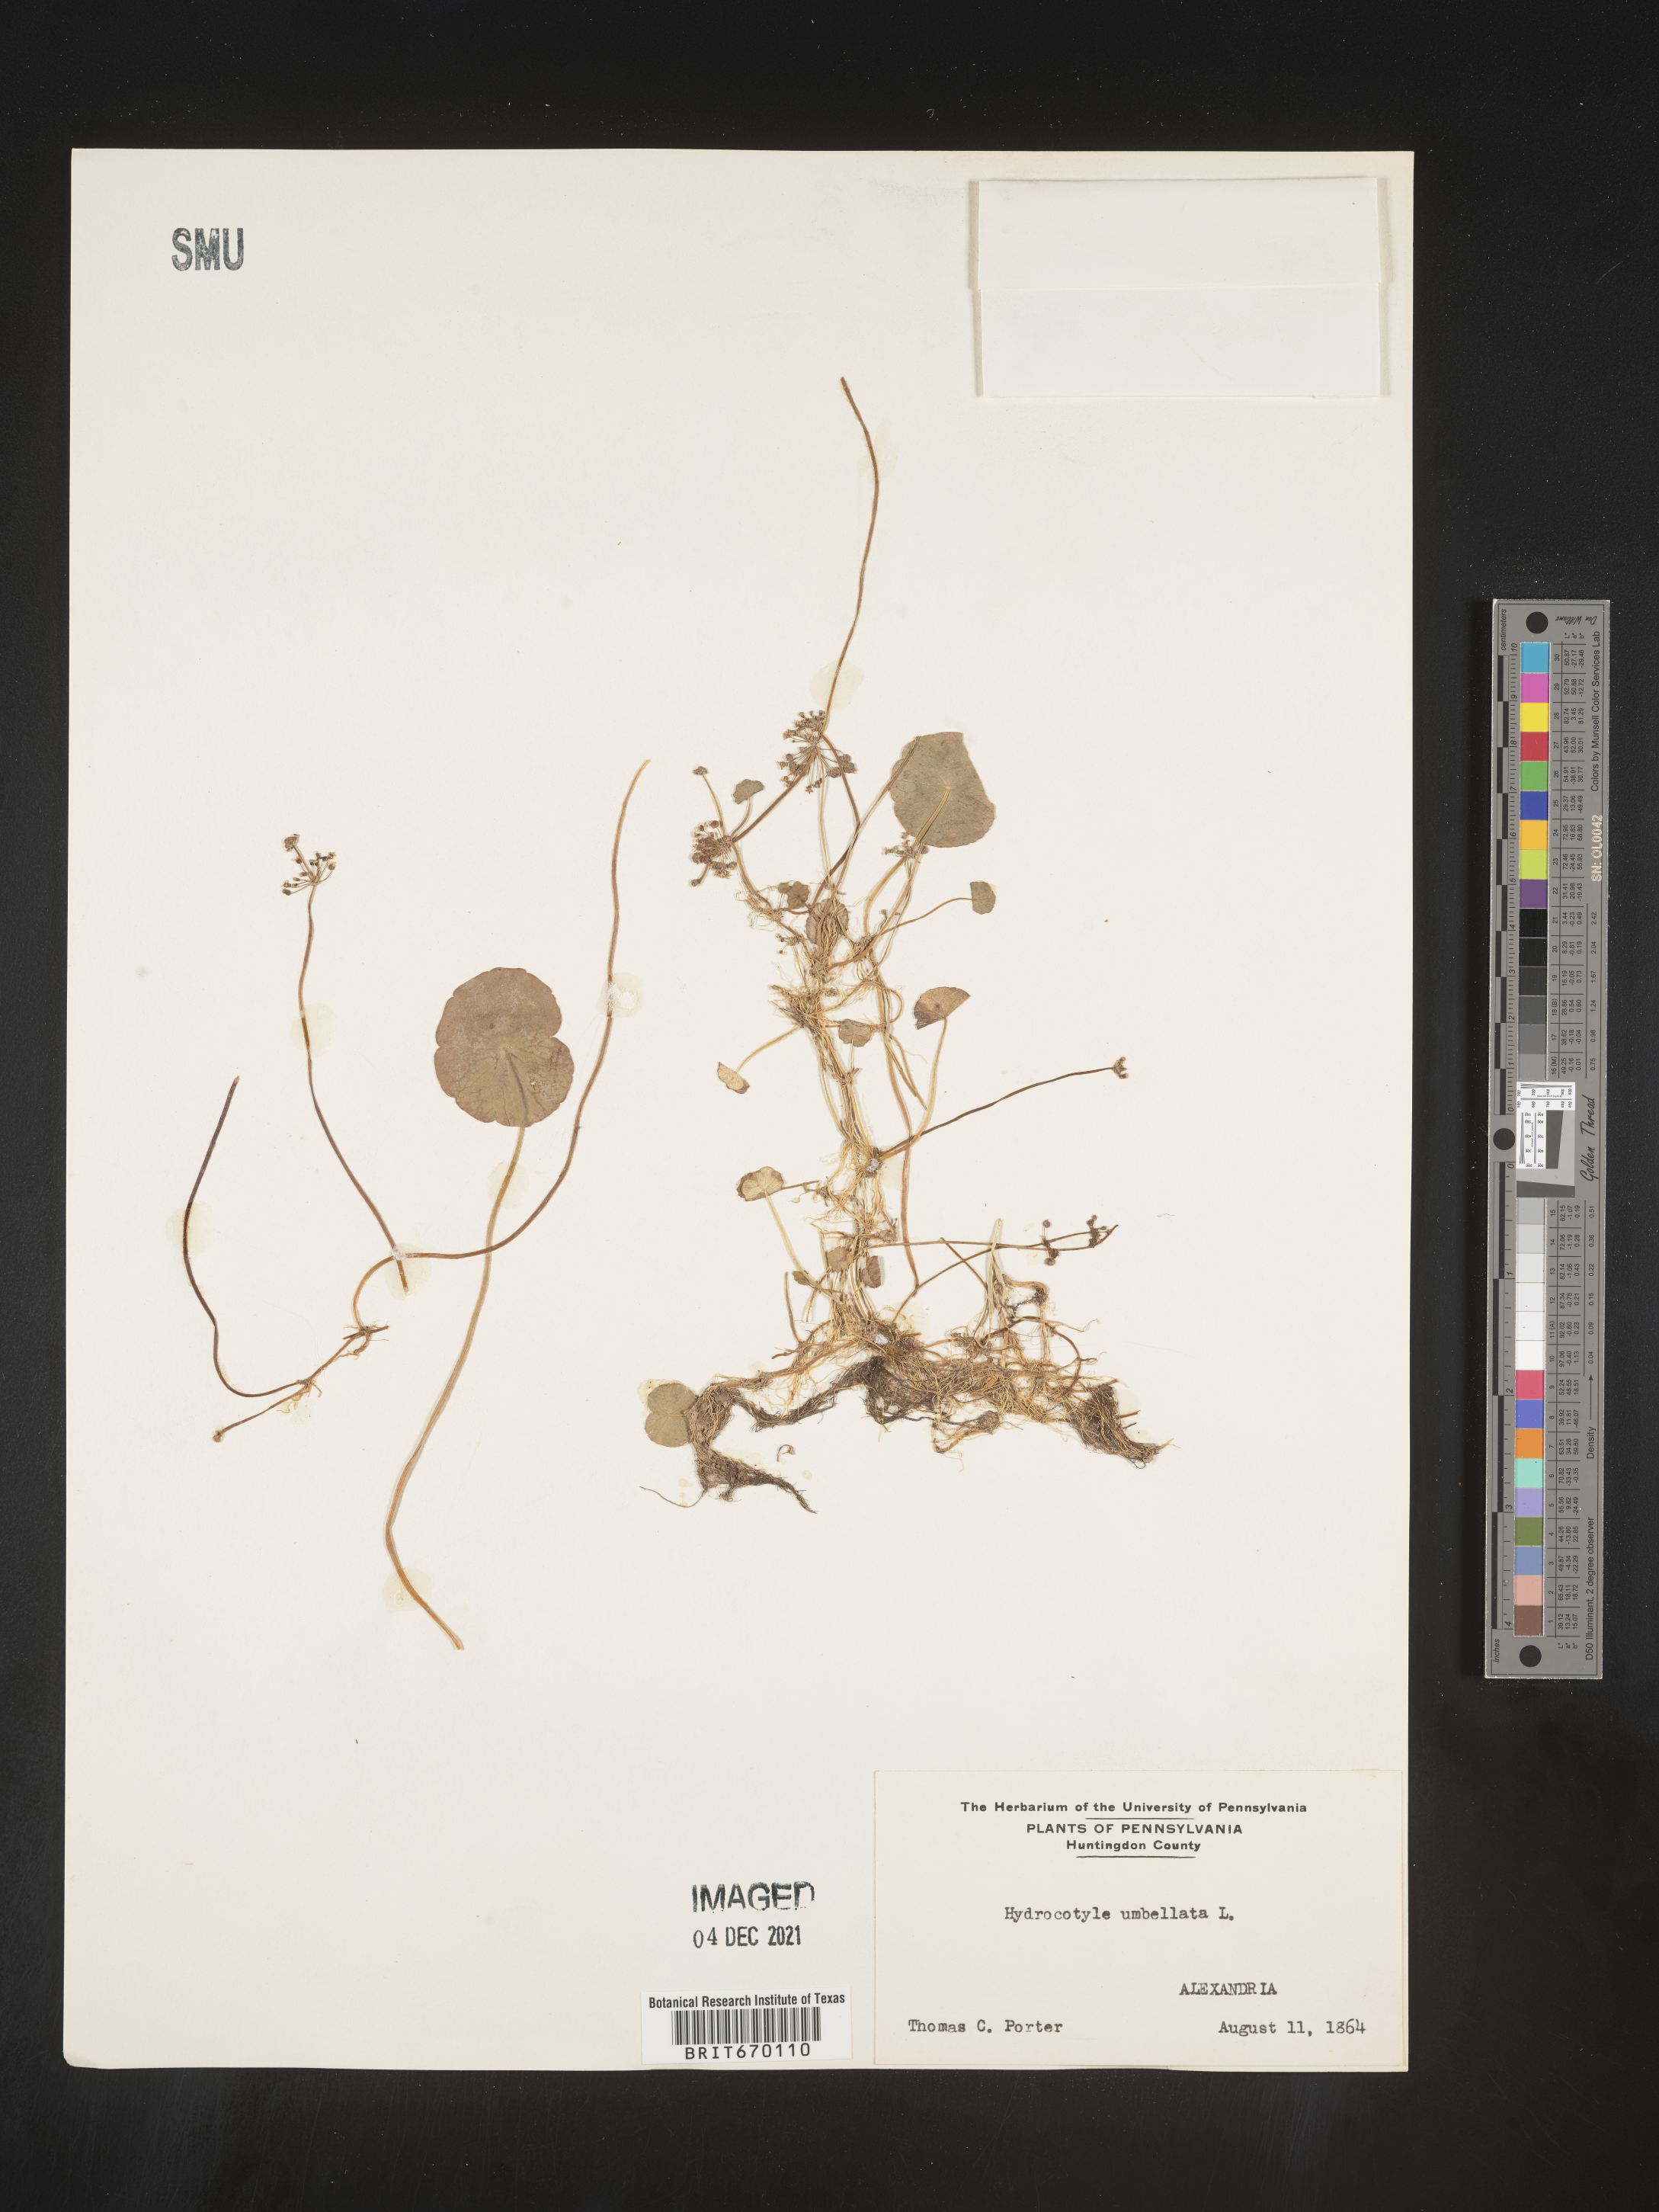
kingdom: Plantae
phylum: Tracheophyta
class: Magnoliopsida
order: Apiales
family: Araliaceae
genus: Hydrocotyle
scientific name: Hydrocotyle umbellata
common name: Water pennywort
